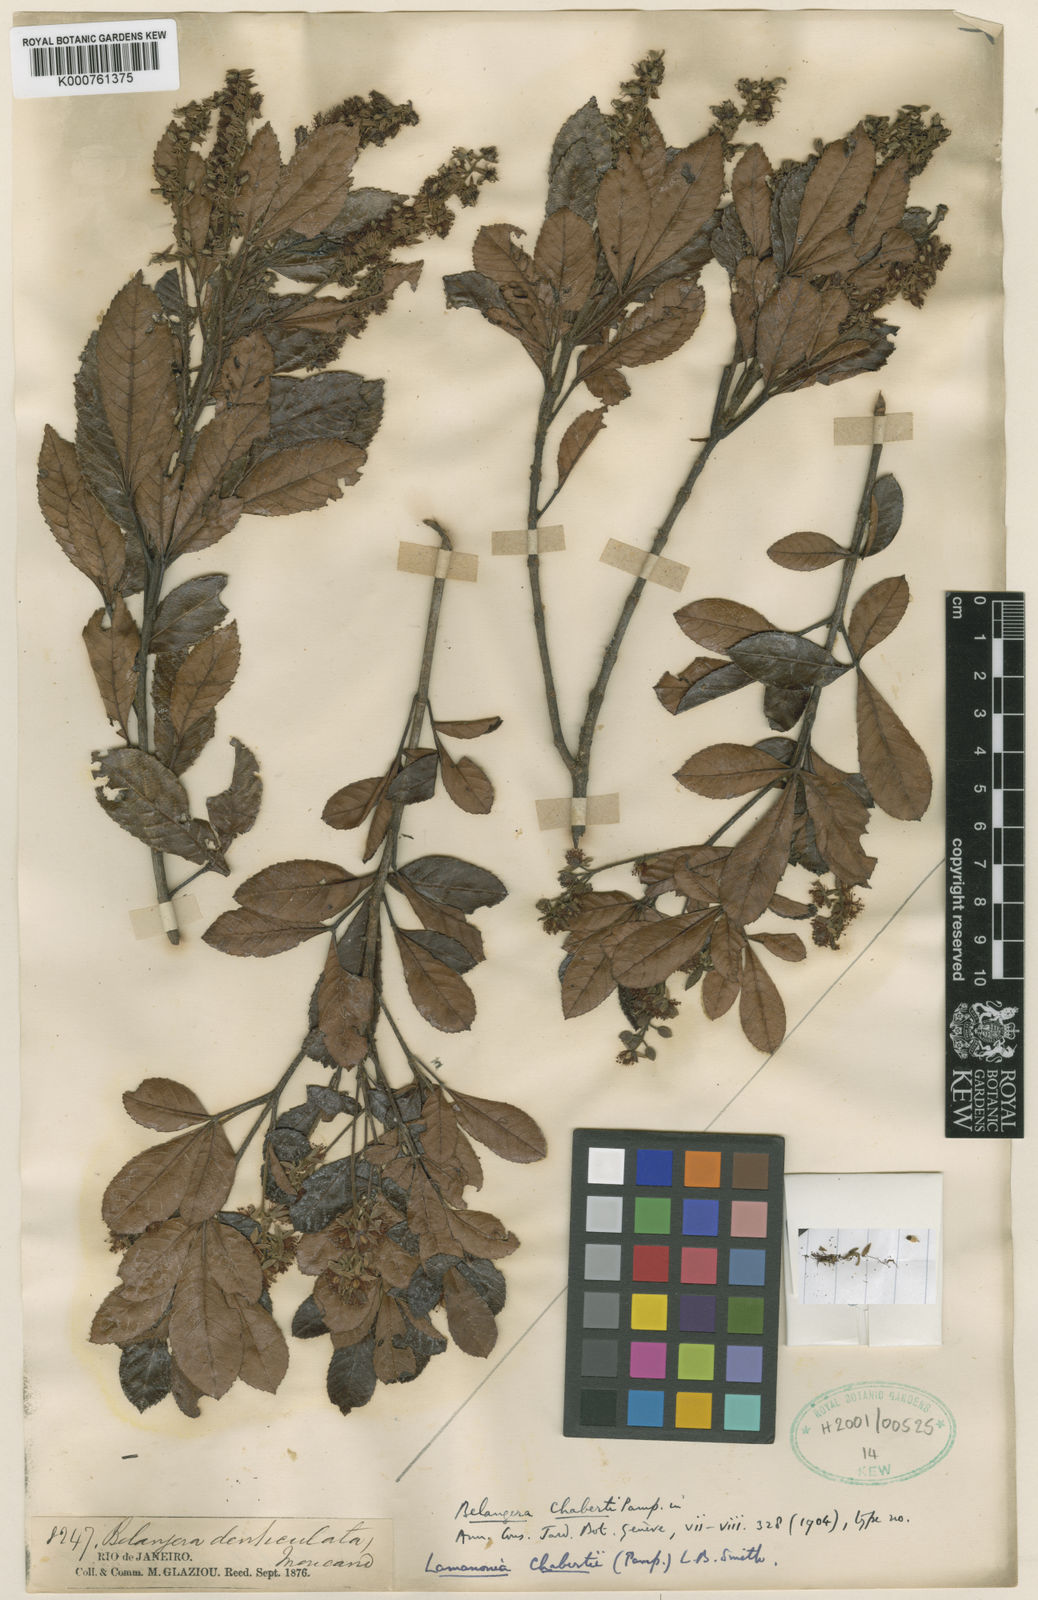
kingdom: Plantae
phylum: Tracheophyta
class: Magnoliopsida
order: Oxalidales
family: Cunoniaceae
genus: Lamanonia
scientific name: Lamanonia chabertii
